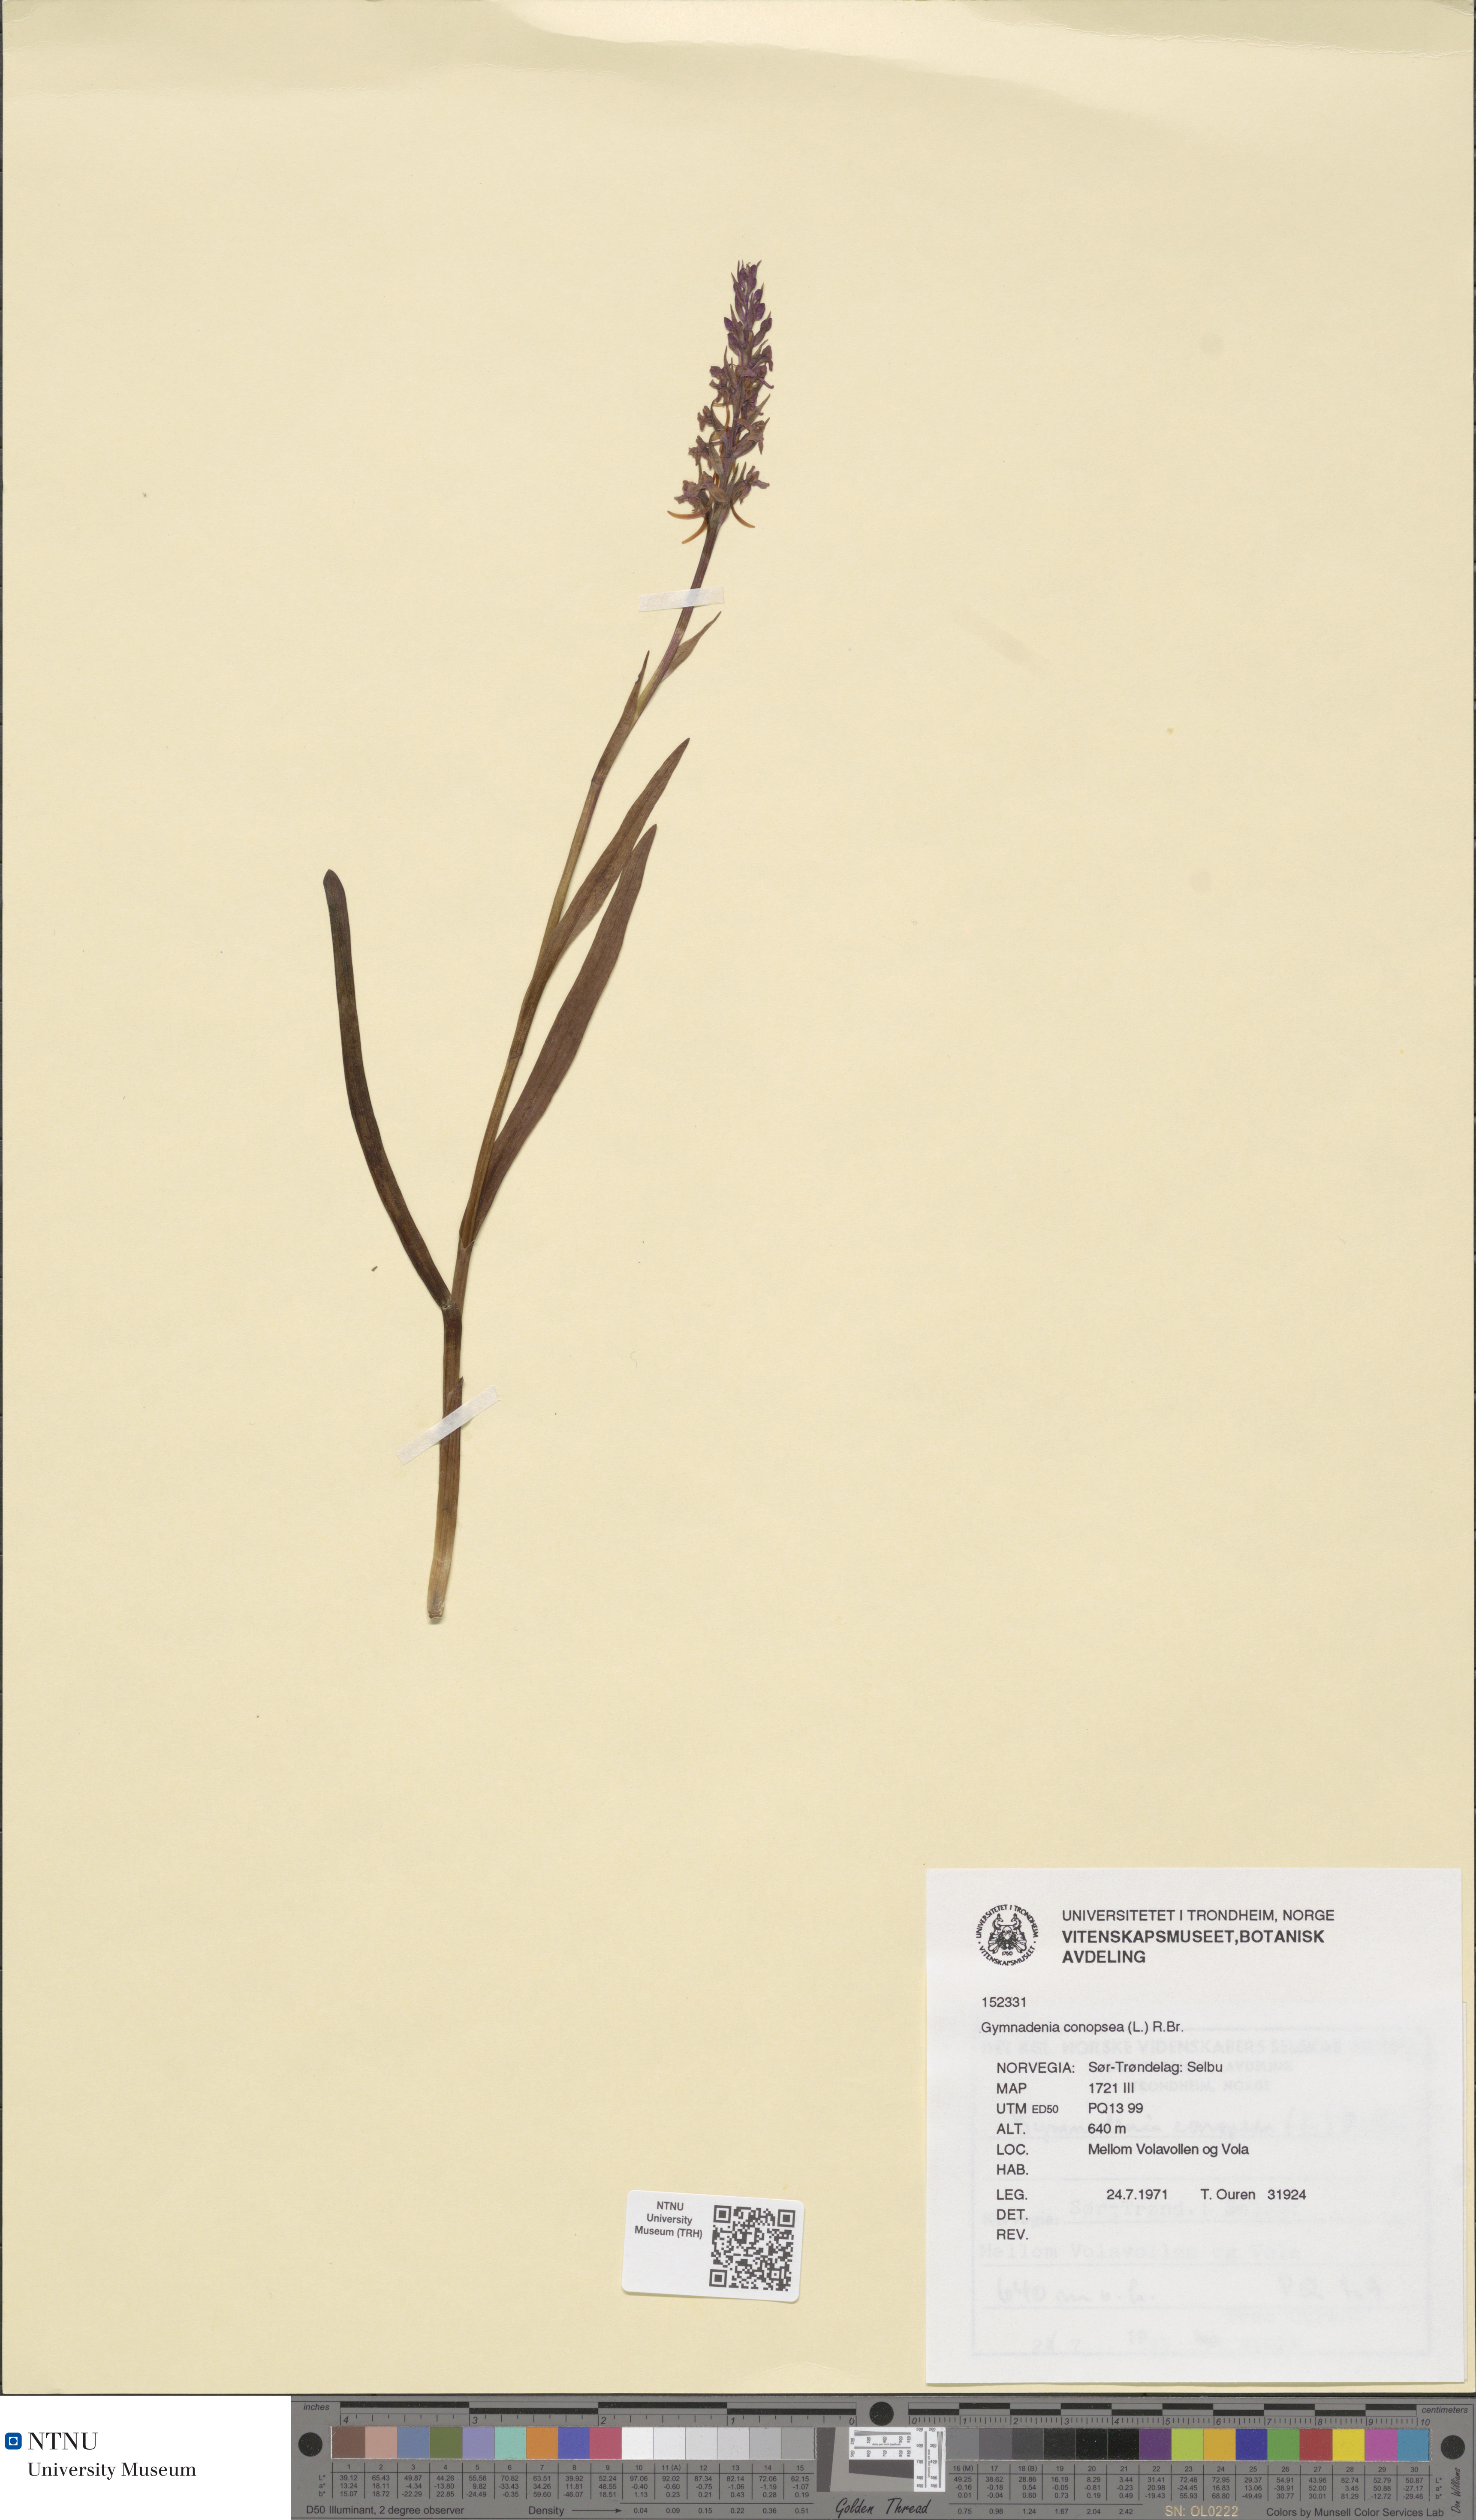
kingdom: Plantae
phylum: Tracheophyta
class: Liliopsida
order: Asparagales
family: Orchidaceae
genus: Gymnadenia
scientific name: Gymnadenia conopsea
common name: Fragrant orchid
